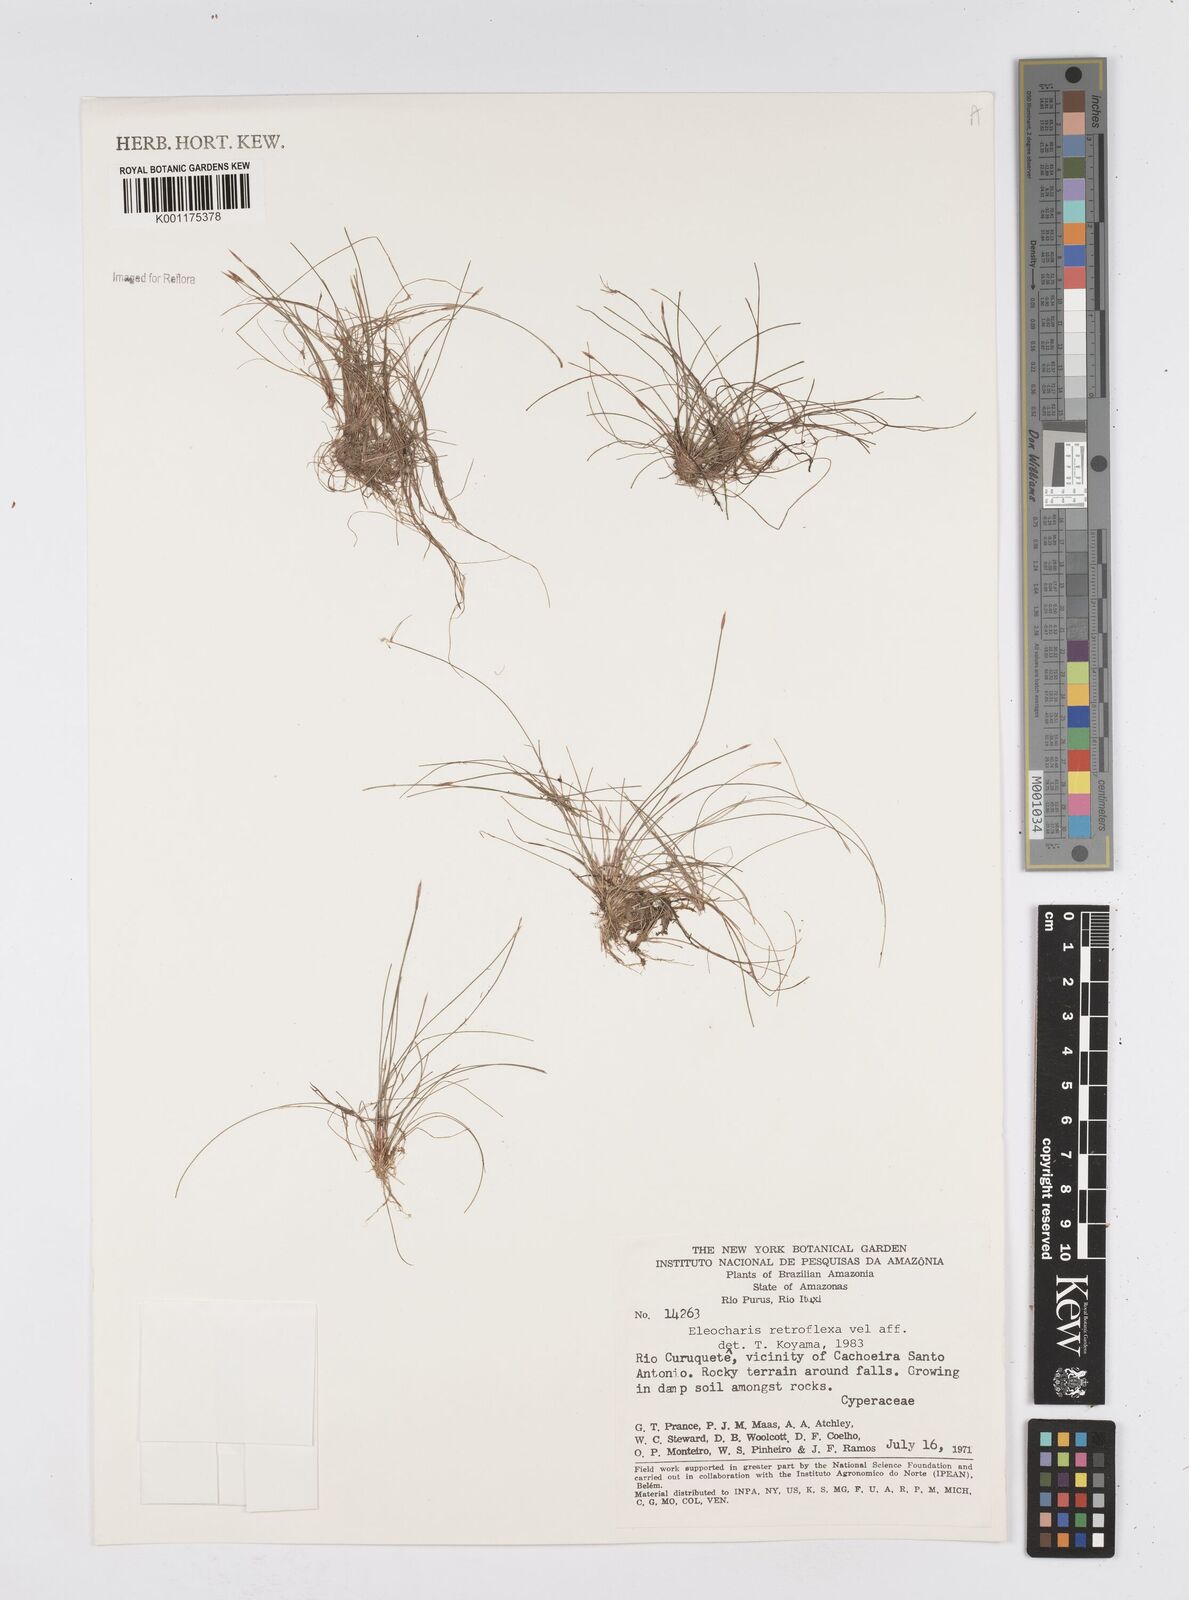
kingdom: Plantae
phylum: Tracheophyta
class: Liliopsida
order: Poales
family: Cyperaceae
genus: Eleocharis
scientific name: Eleocharis retroflexa
